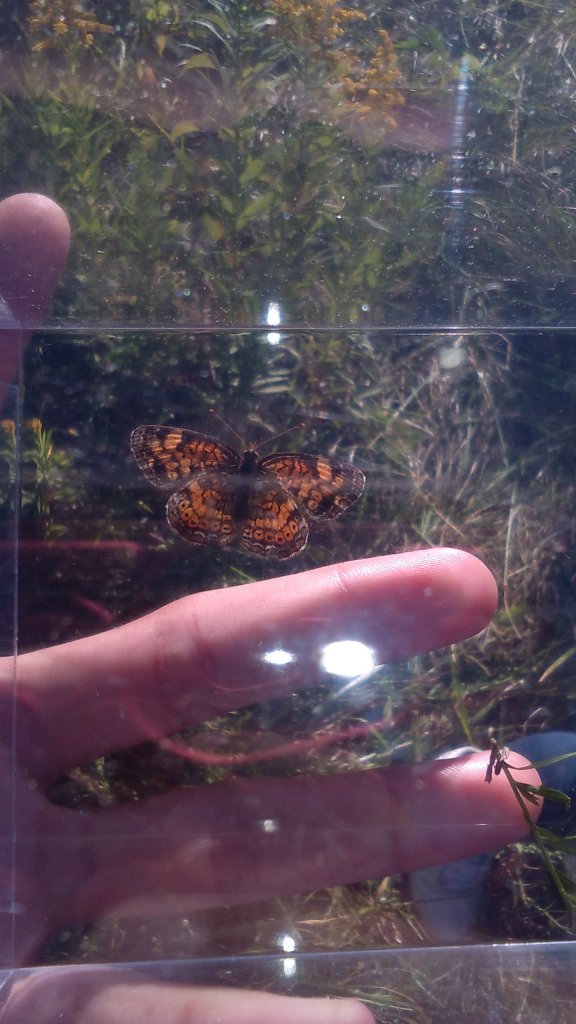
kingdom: Animalia
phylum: Arthropoda
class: Insecta
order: Lepidoptera
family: Nymphalidae
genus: Phyciodes
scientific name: Phyciodes tharos
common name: Pearl Crescent
